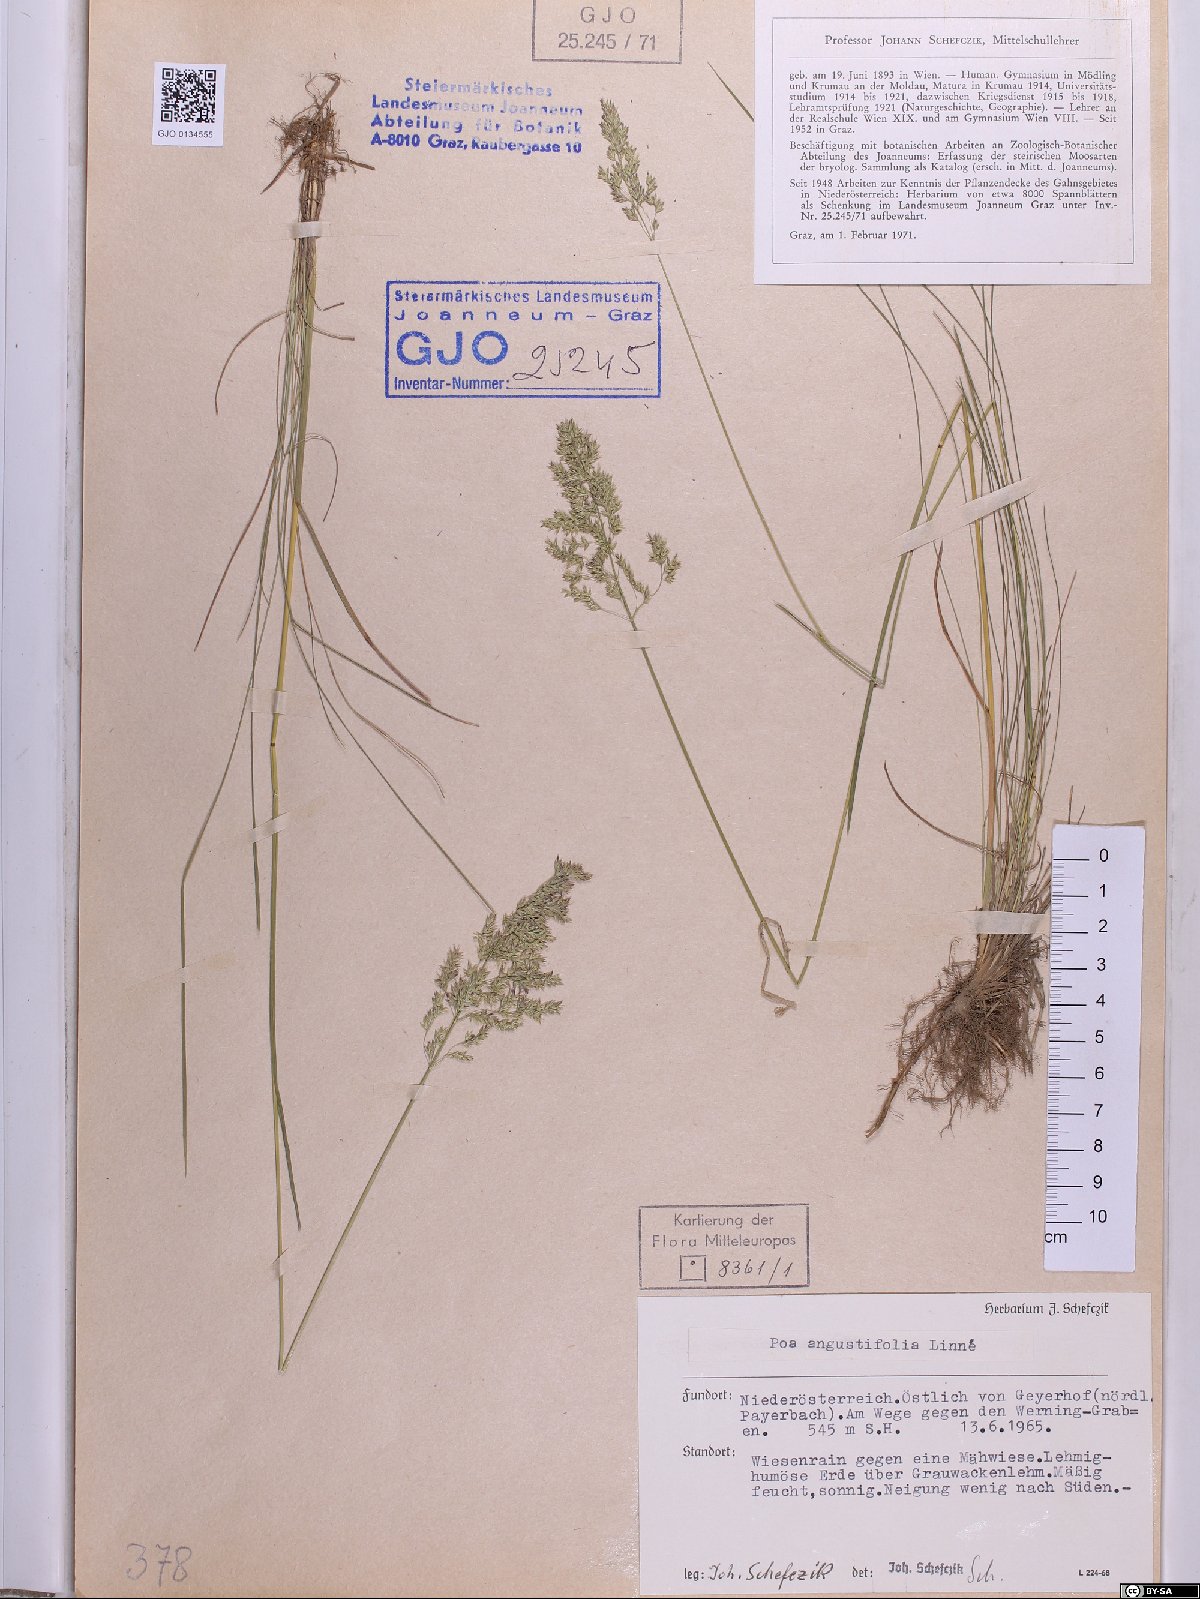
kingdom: Plantae
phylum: Tracheophyta
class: Liliopsida
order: Poales
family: Poaceae
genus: Poa
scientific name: Poa angustifolia
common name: Narrow-leaved meadow-grass
